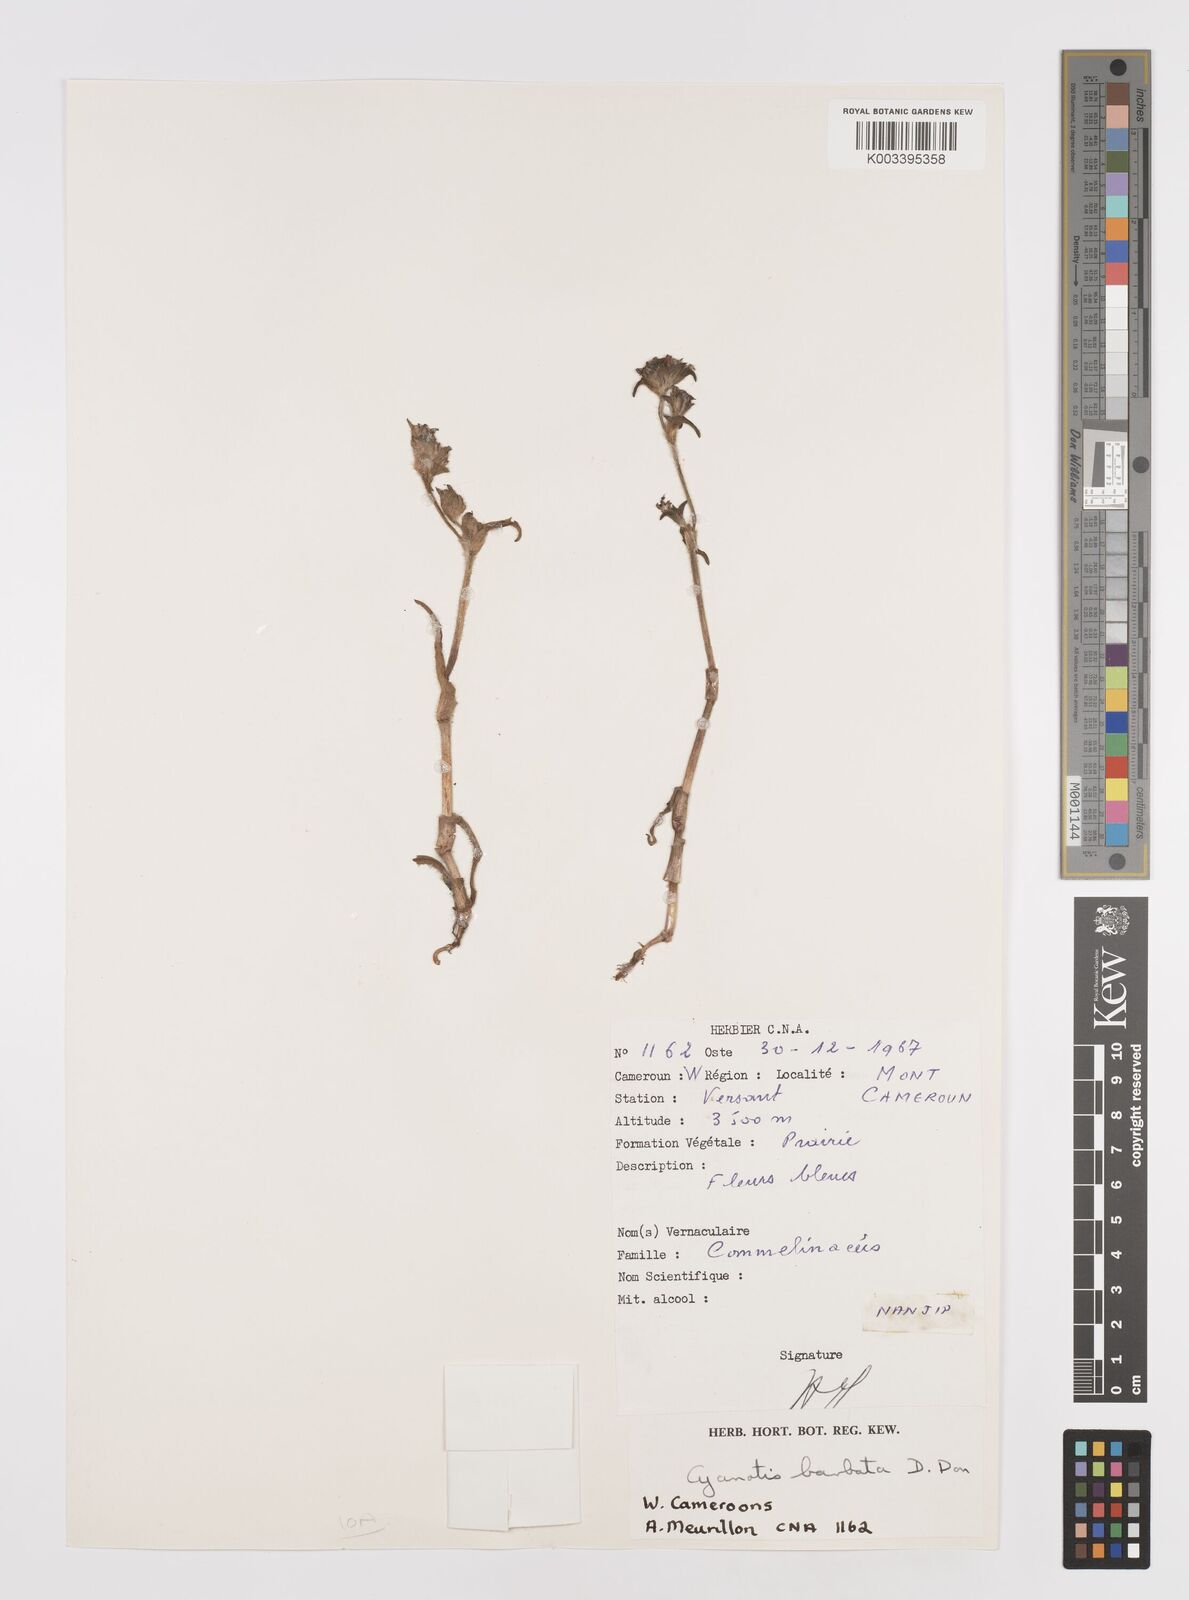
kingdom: Plantae
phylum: Tracheophyta
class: Liliopsida
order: Commelinales
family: Commelinaceae
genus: Cyanotis
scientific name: Cyanotis vaga
